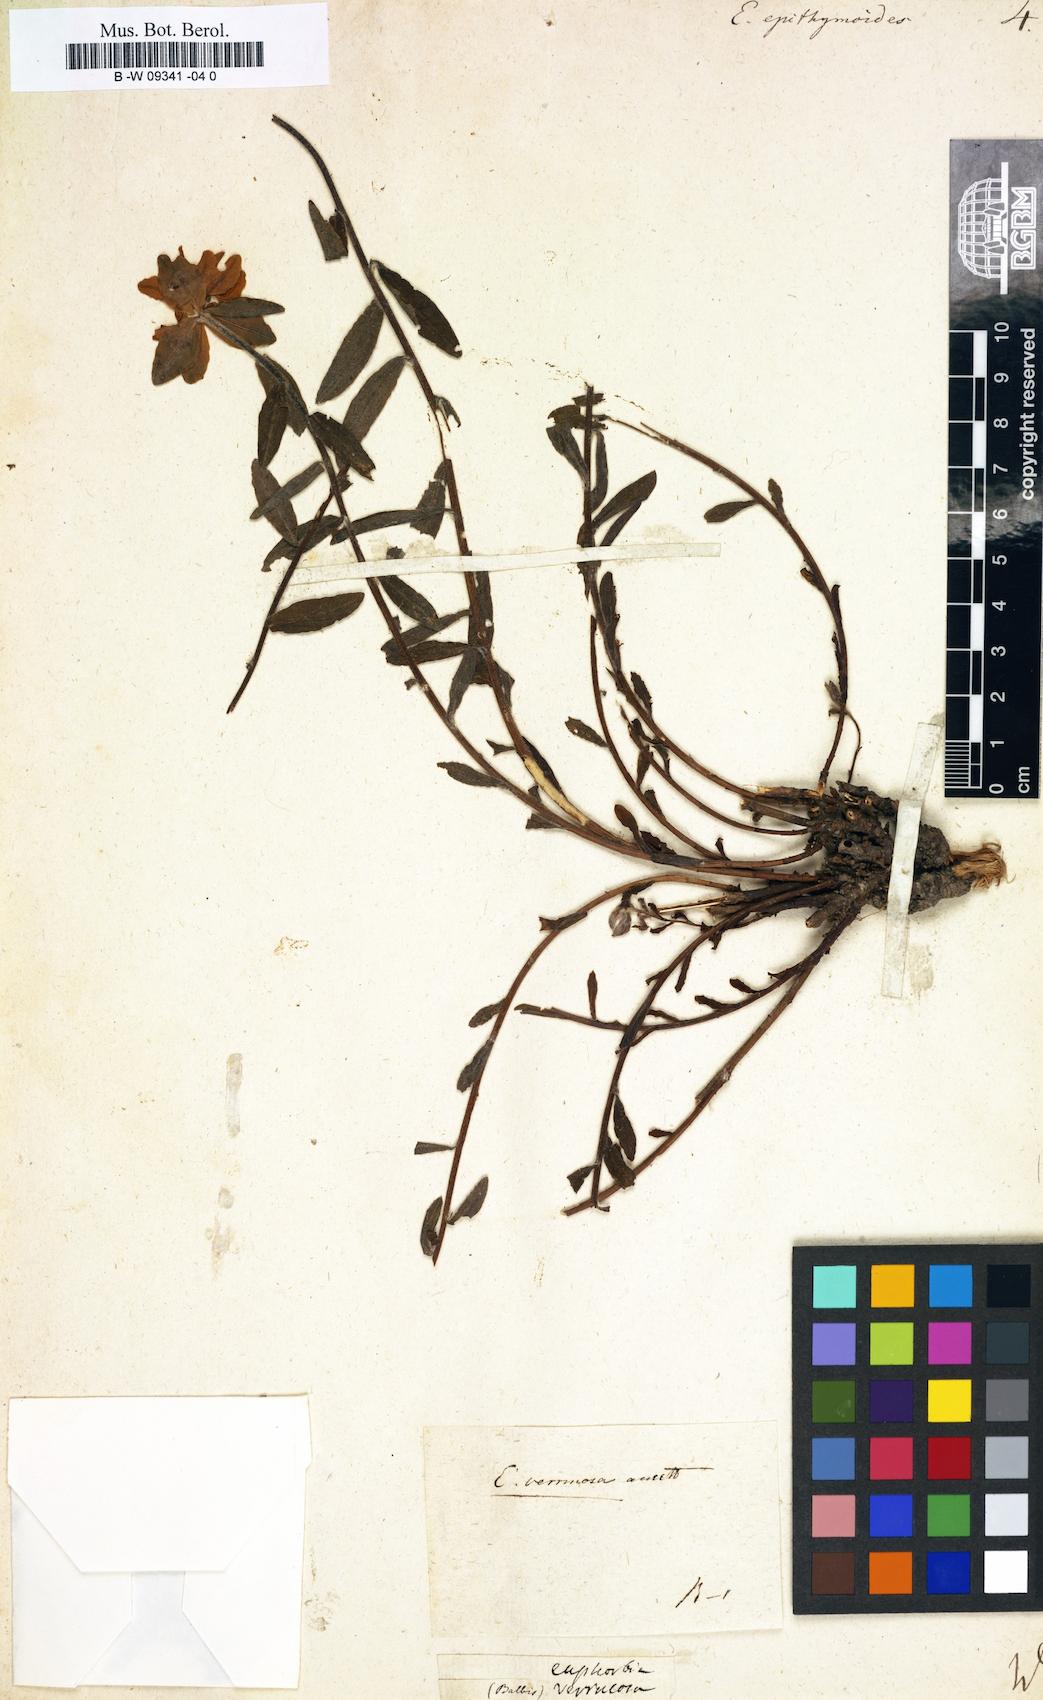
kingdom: Plantae
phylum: Tracheophyta
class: Magnoliopsida
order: Malpighiales
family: Euphorbiaceae
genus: Euphorbia
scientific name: Euphorbia epithymoides
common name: Cushion spurge
